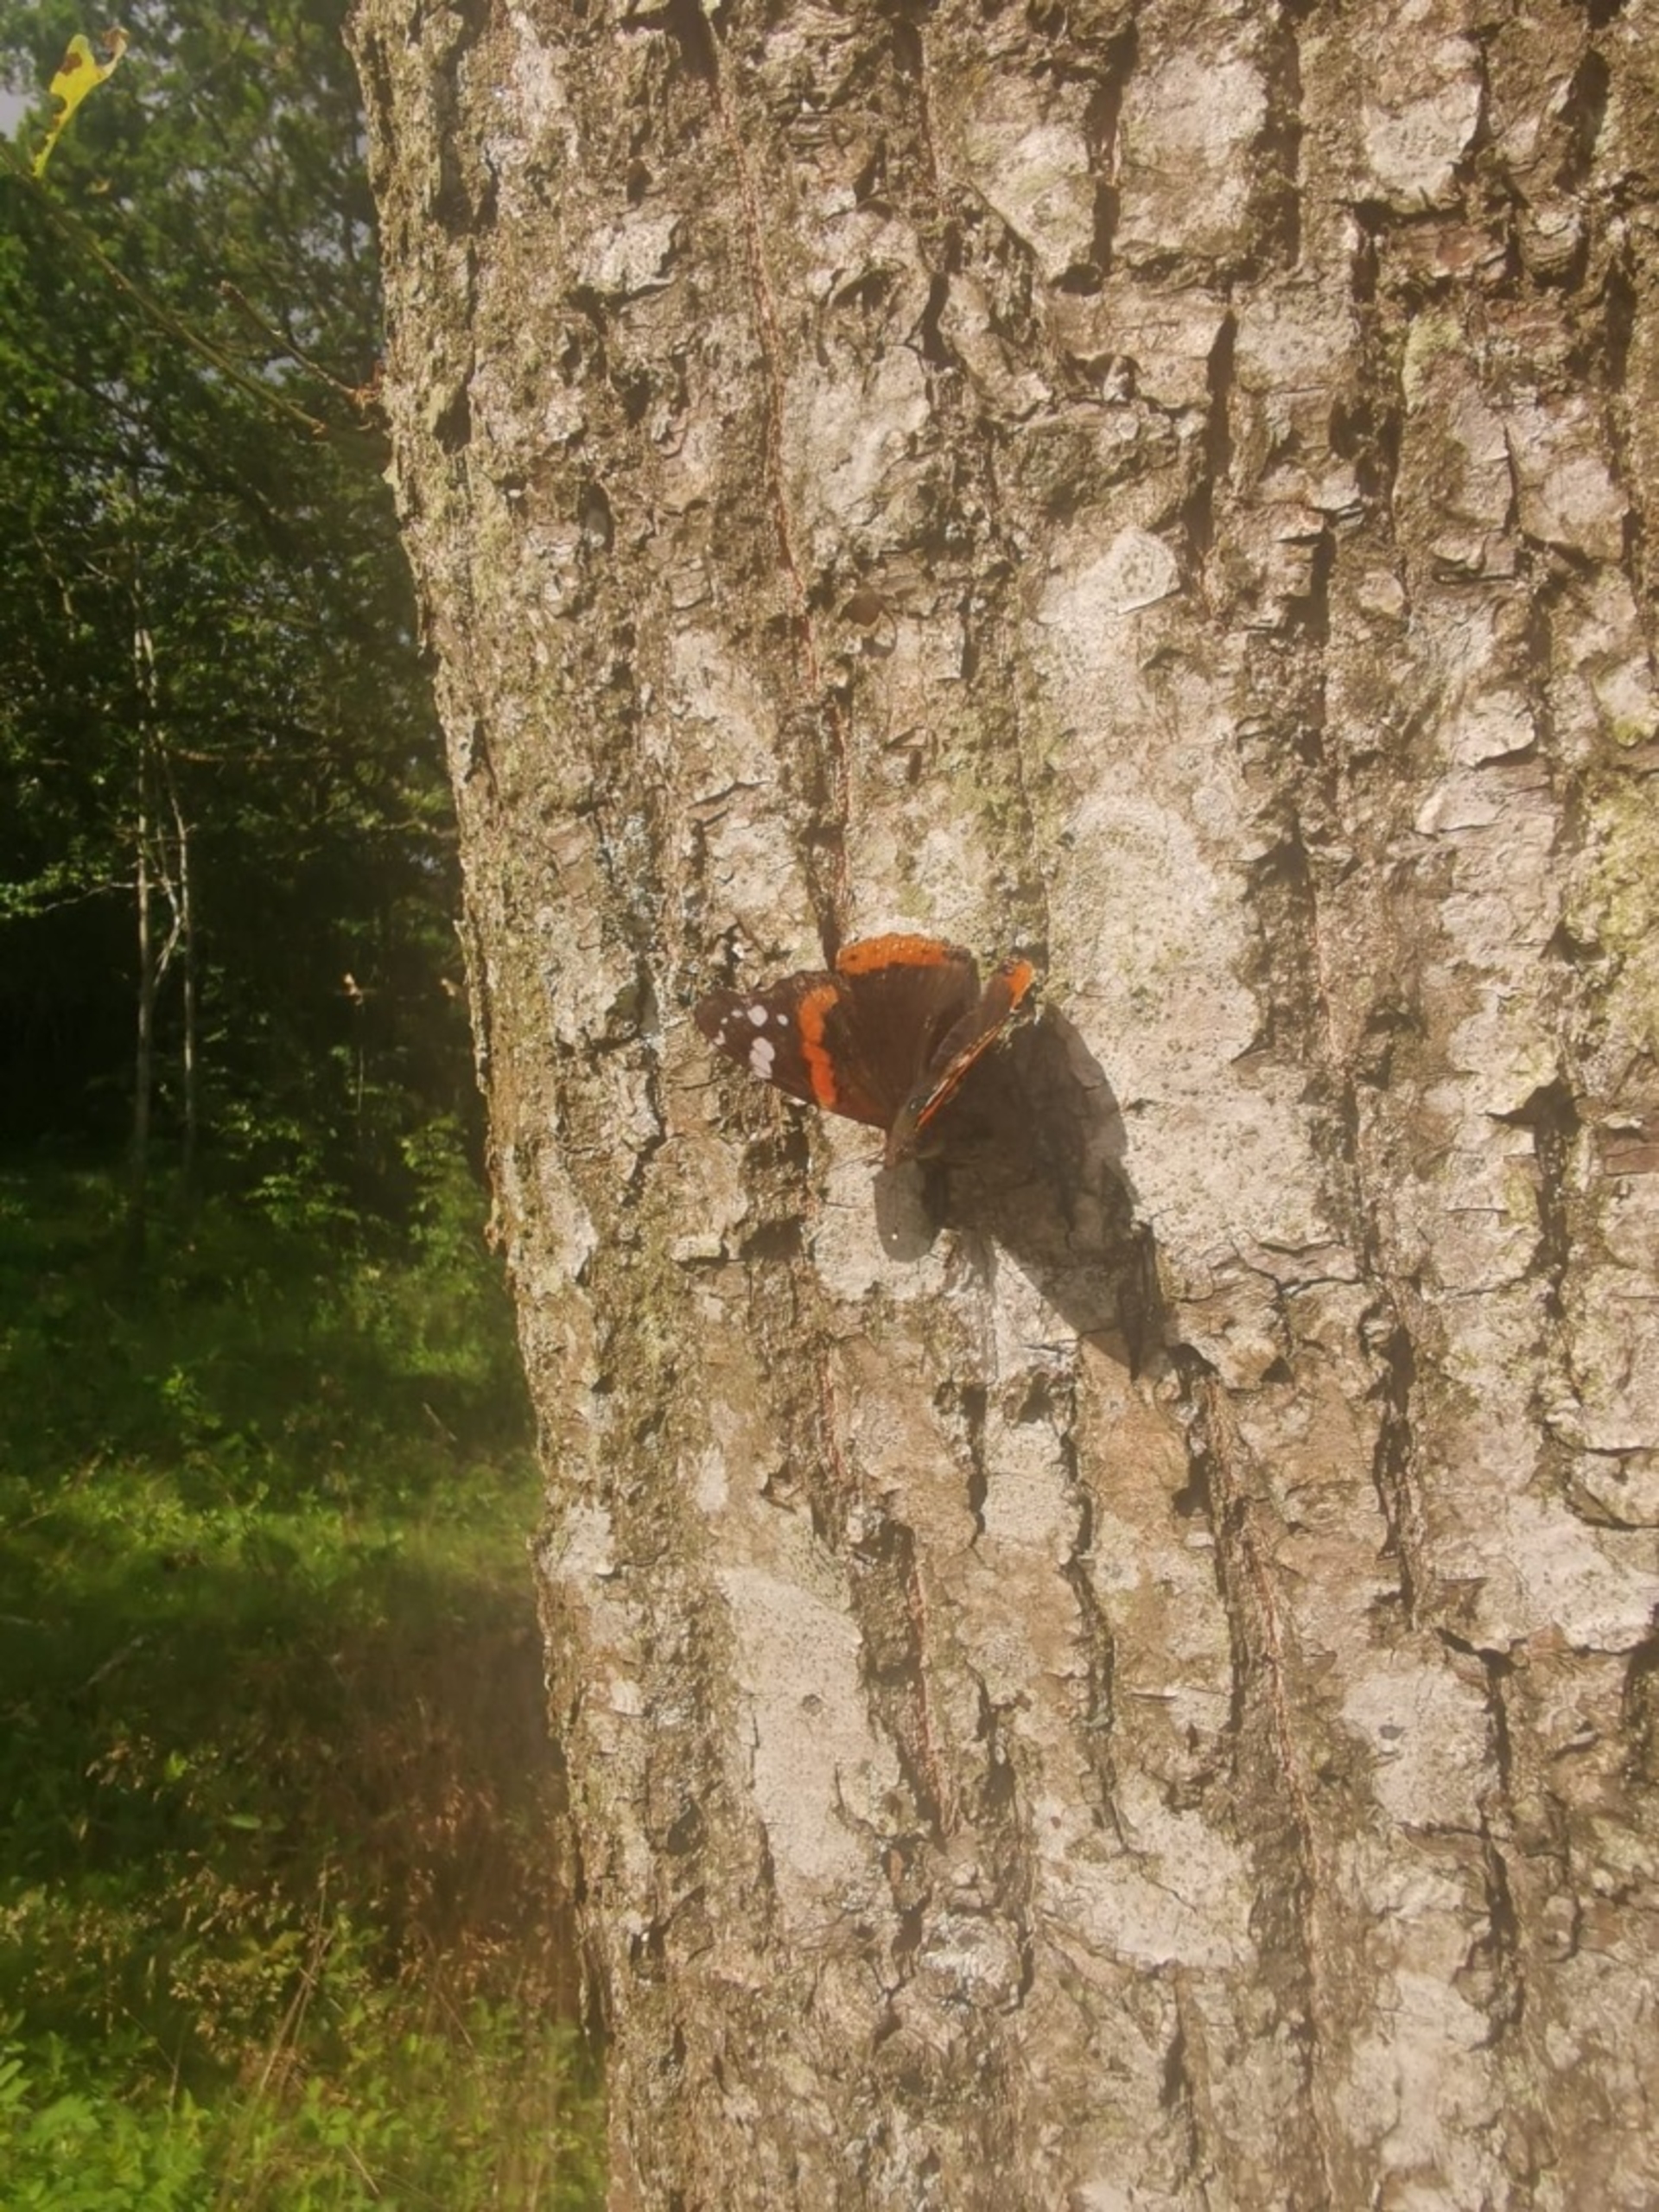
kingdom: Animalia
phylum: Arthropoda
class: Insecta
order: Lepidoptera
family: Nymphalidae
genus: Vanessa
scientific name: Vanessa atalanta
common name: Admiral
